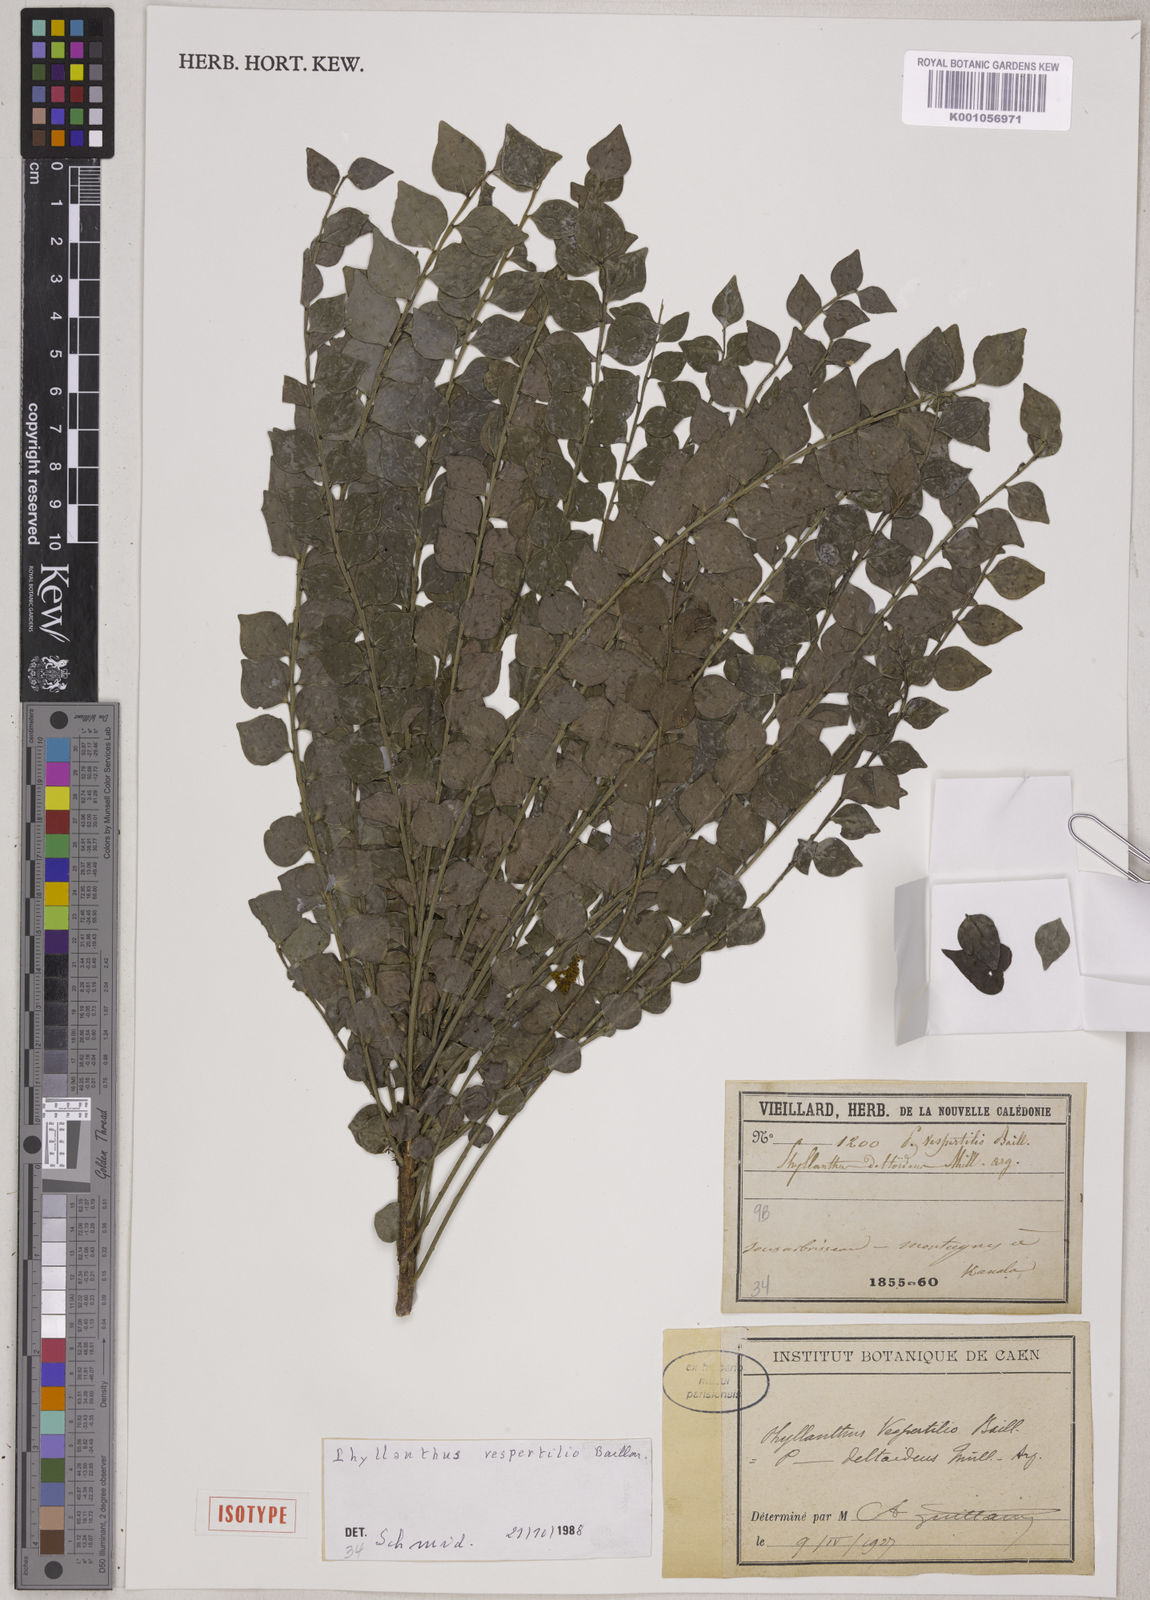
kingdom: Plantae
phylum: Tracheophyta
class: Magnoliopsida
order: Malpighiales
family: Phyllanthaceae
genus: Phyllanthus
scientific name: Phyllanthus vespertilio
